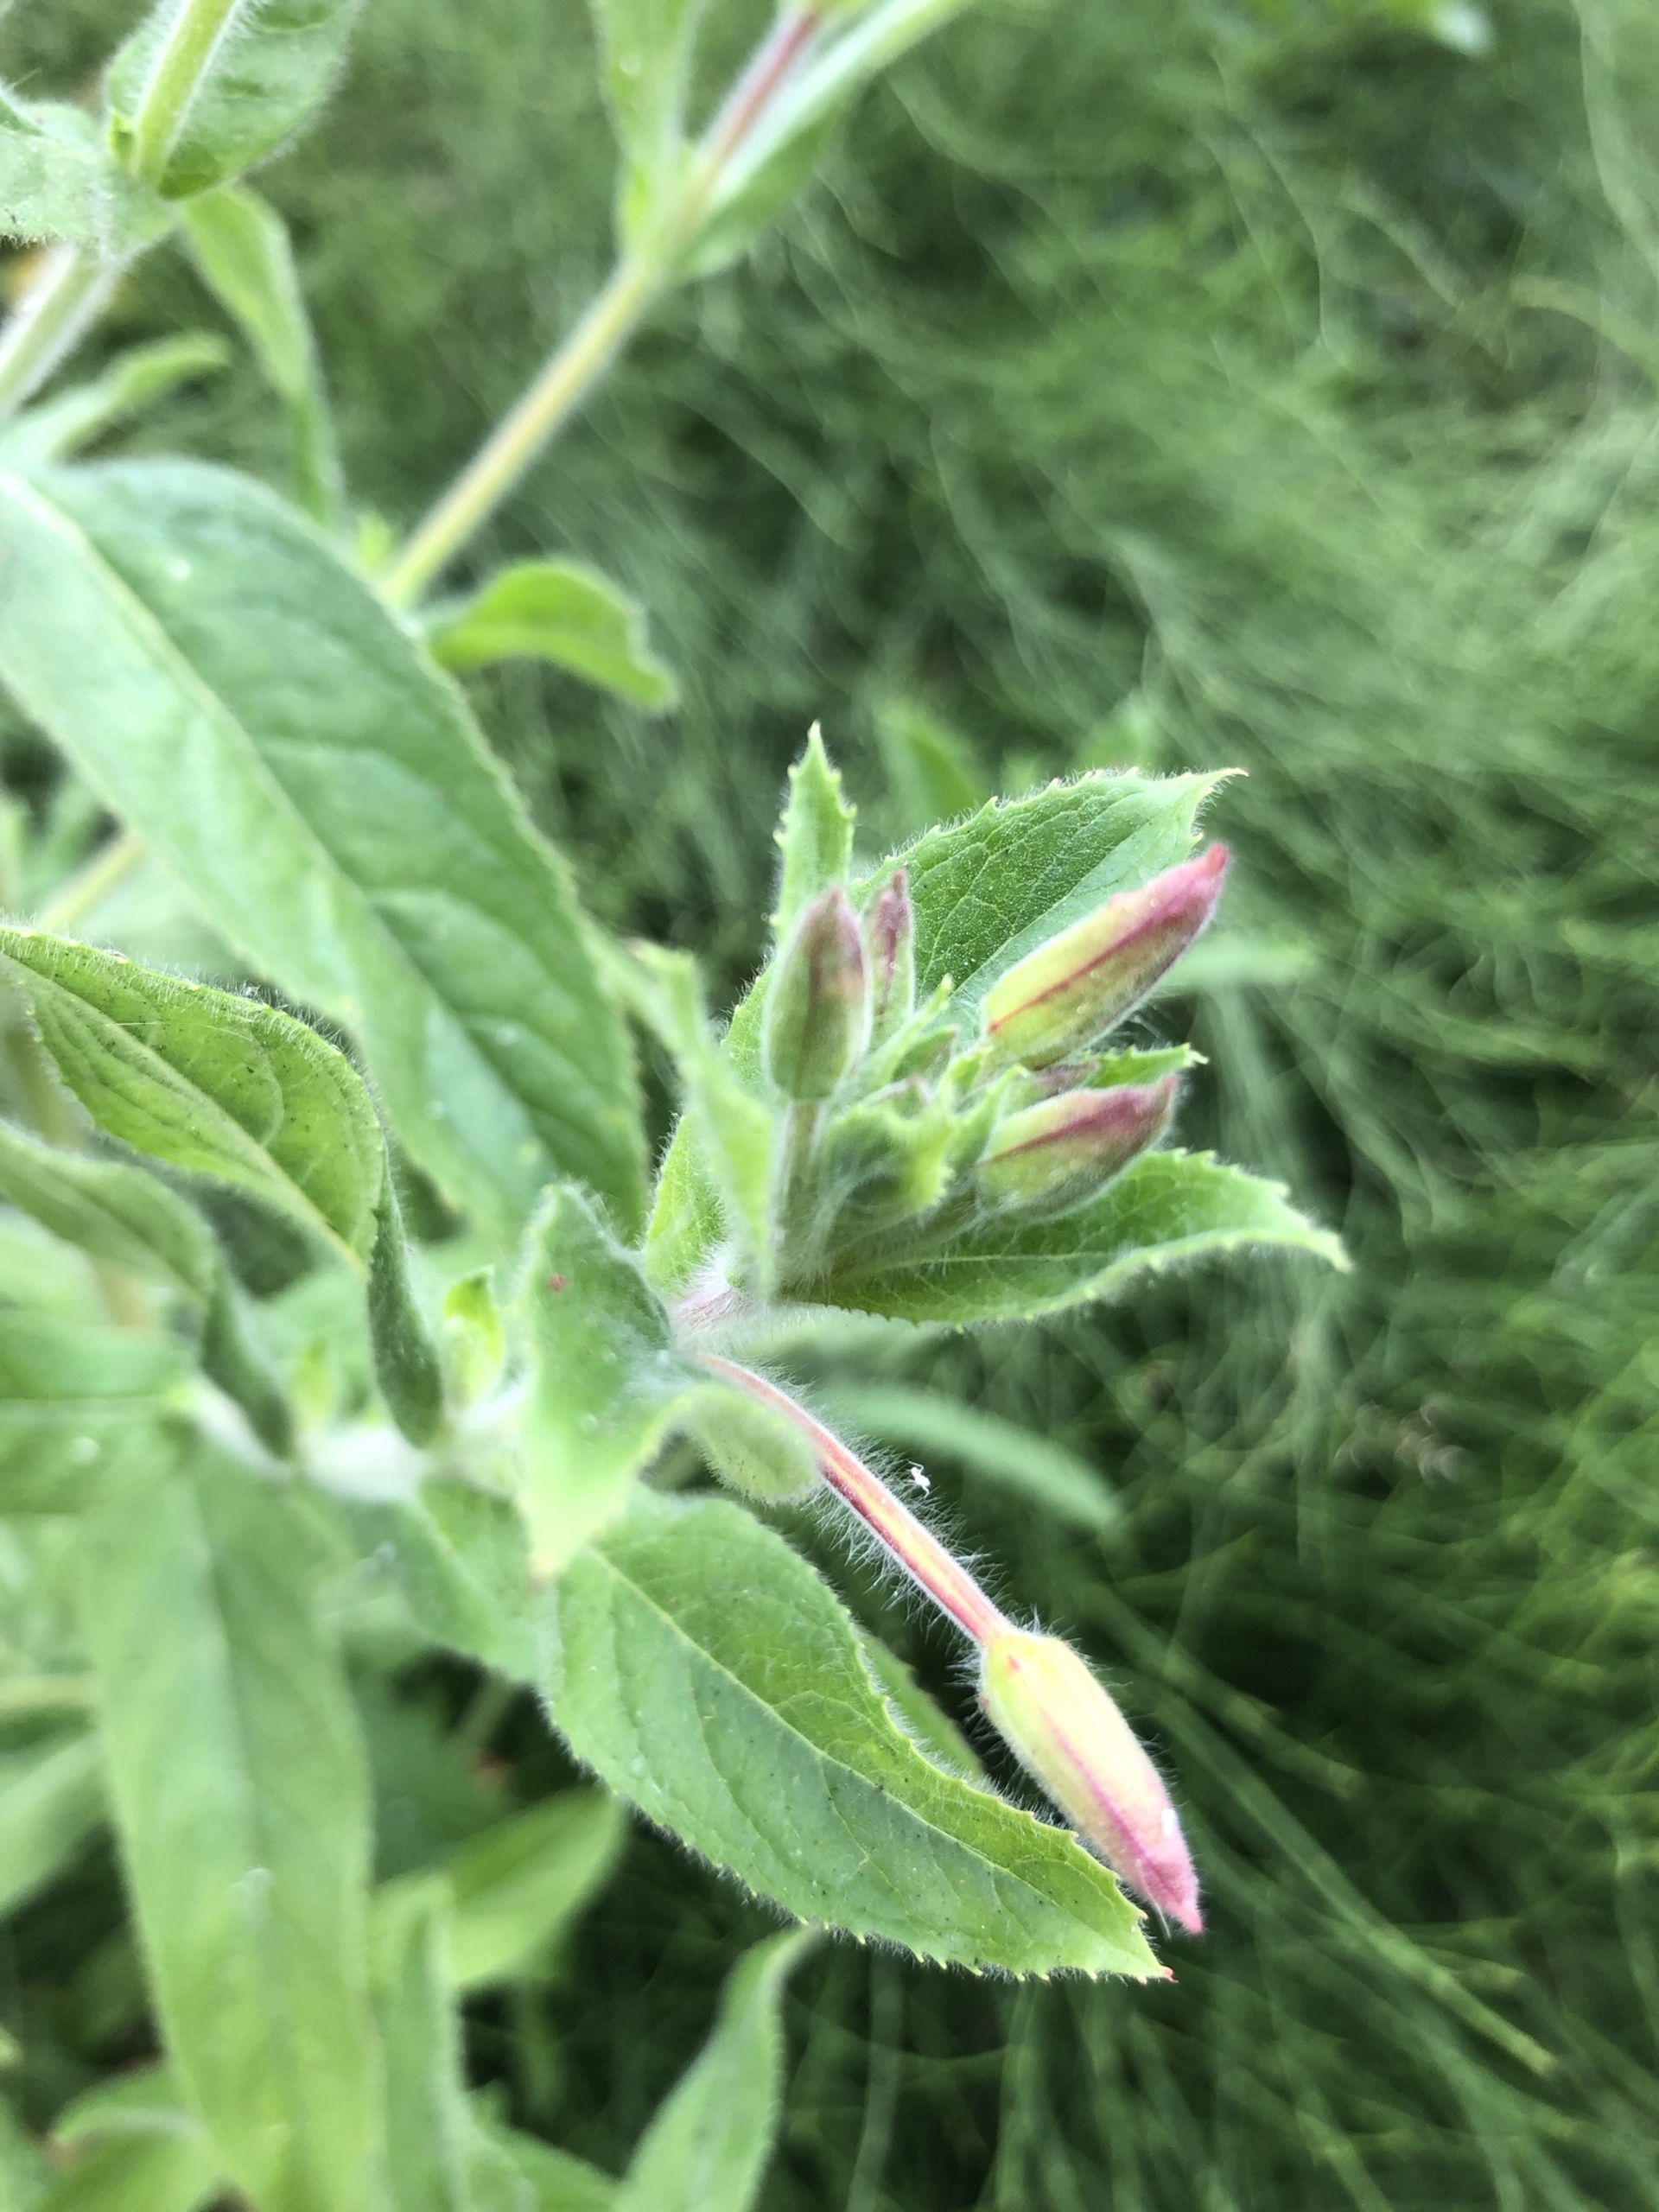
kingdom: Plantae
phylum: Tracheophyta
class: Magnoliopsida
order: Myrtales
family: Onagraceae
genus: Epilobium
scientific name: Epilobium hirsutum
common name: Lådden dueurt
